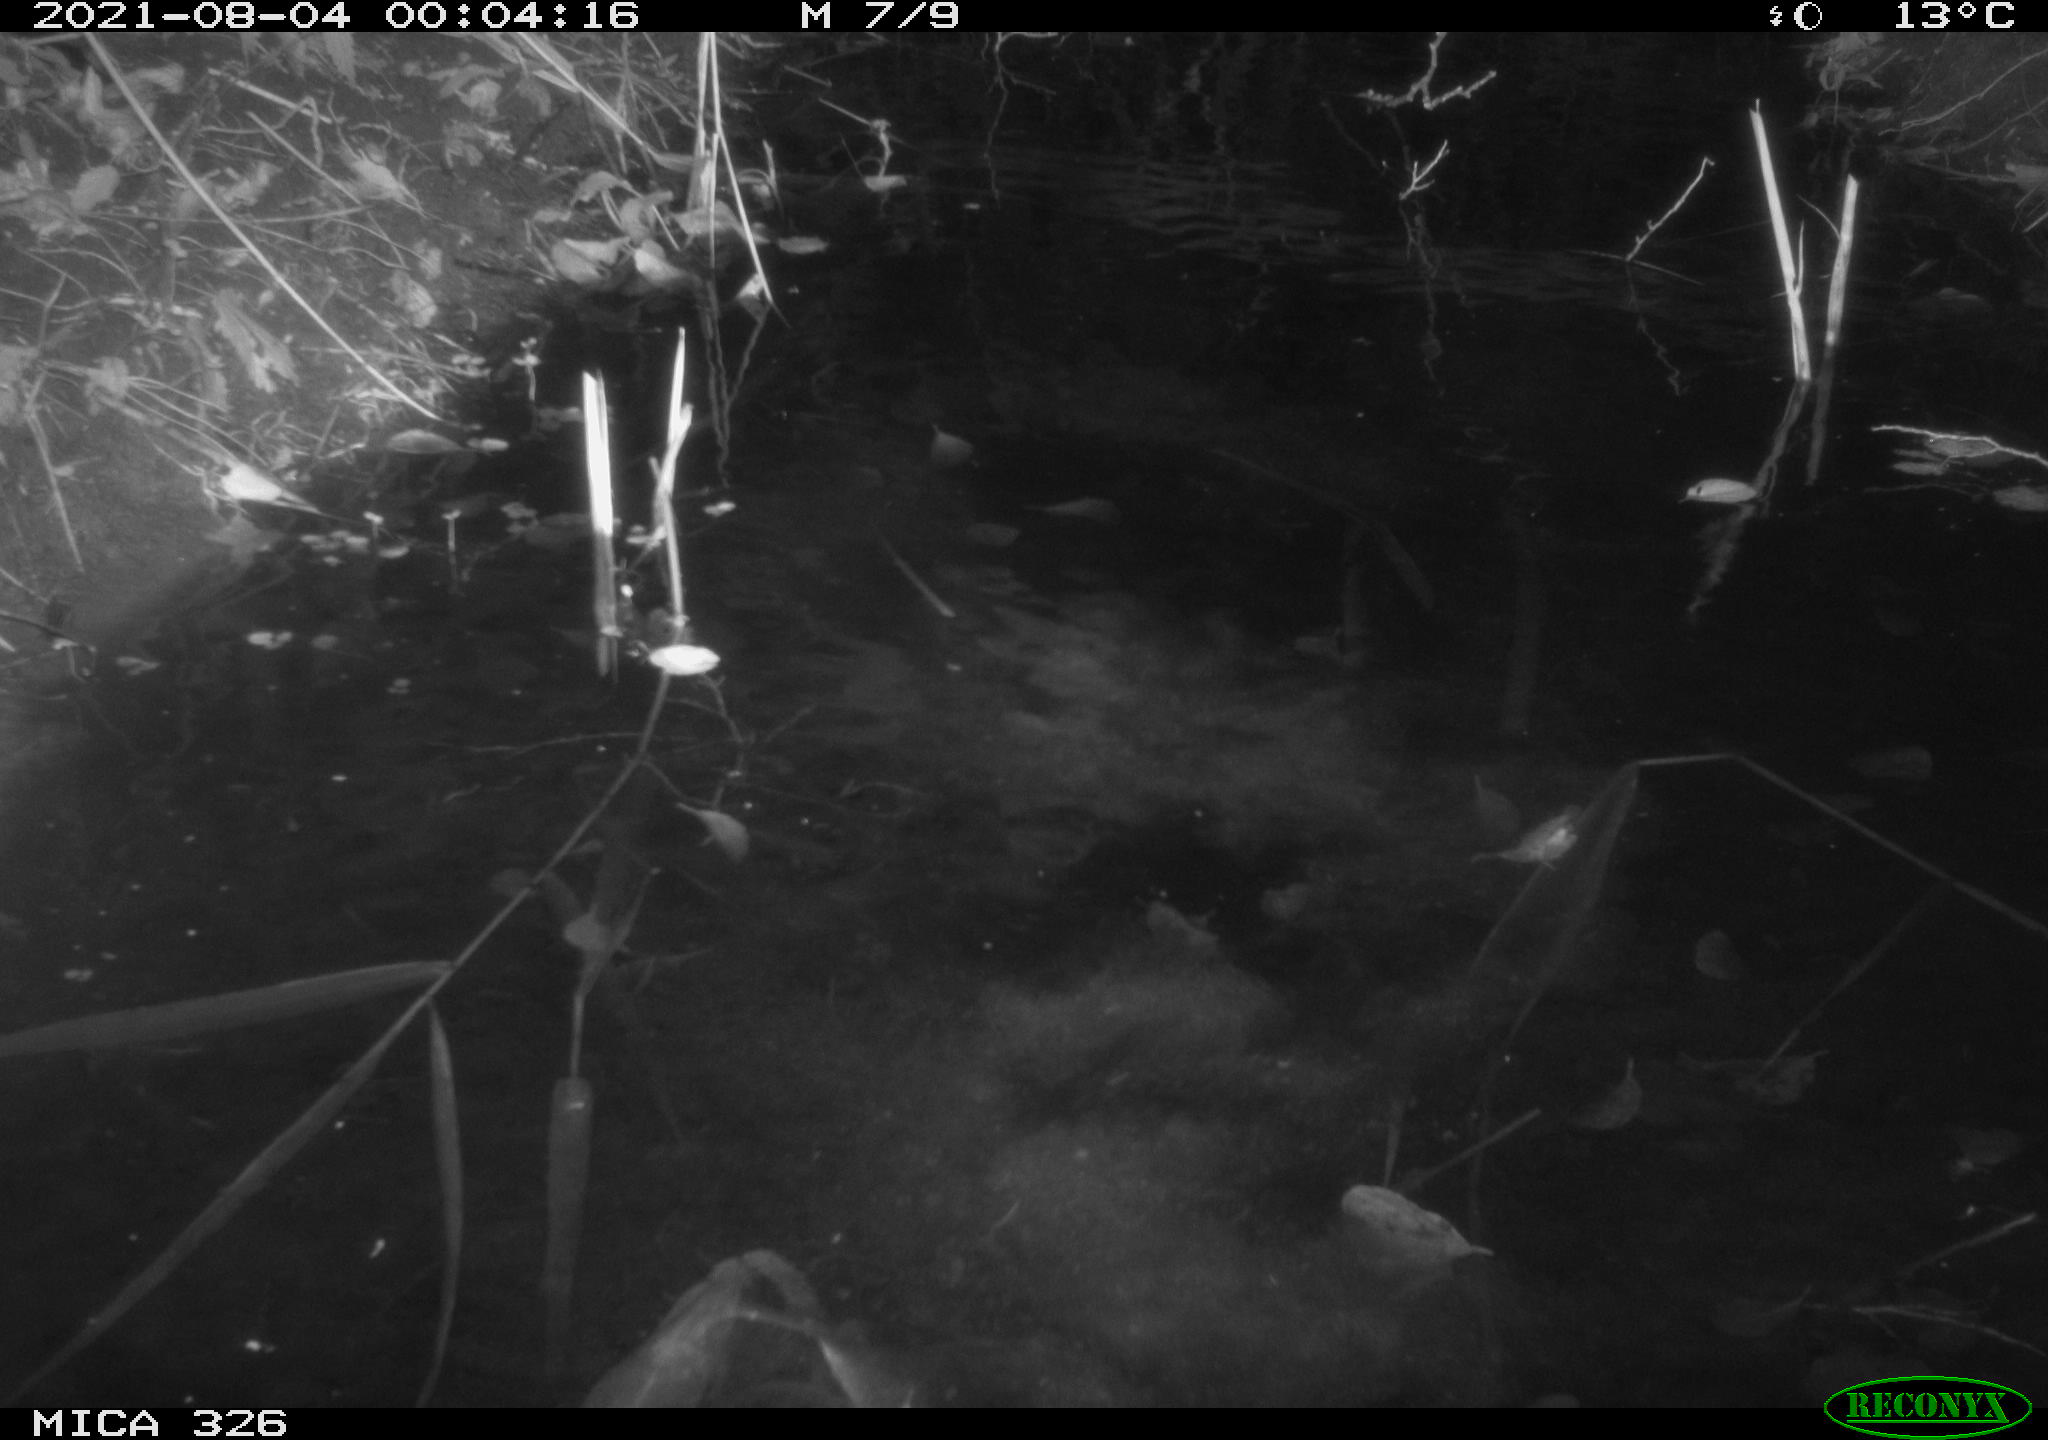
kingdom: Animalia
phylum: Chordata
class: Mammalia
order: Rodentia
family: Myocastoridae
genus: Myocastor
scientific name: Myocastor coypus
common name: Coypu
